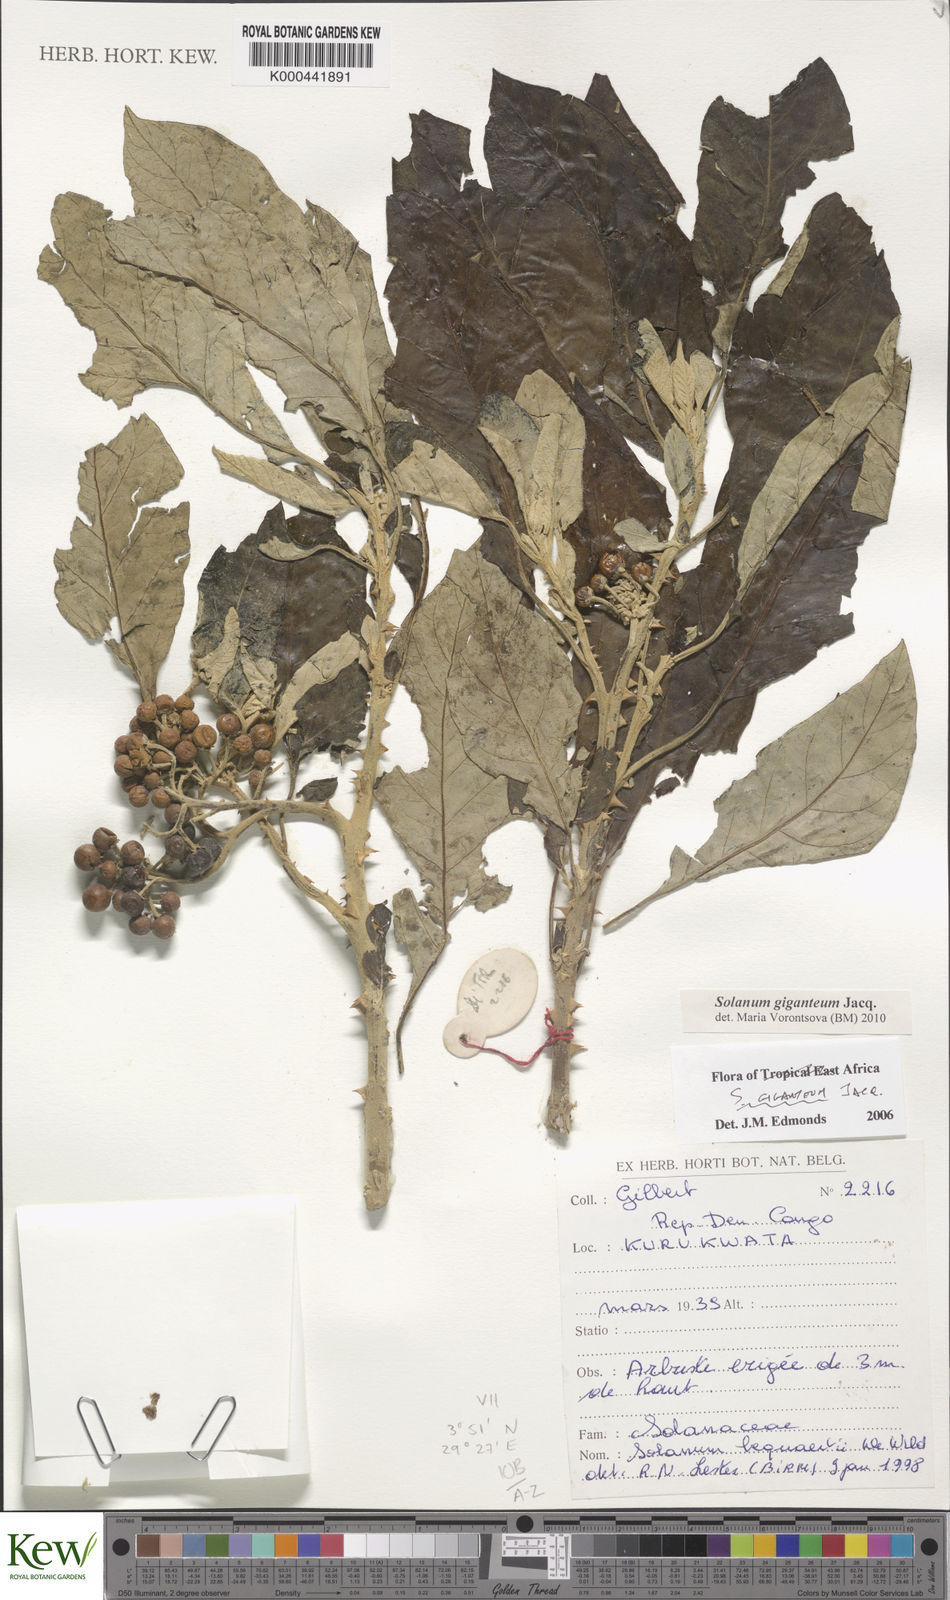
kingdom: Plantae
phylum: Tracheophyta
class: Magnoliopsida
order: Solanales
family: Solanaceae
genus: Solanum
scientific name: Solanum giganteum
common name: Healing-leaf-tree
